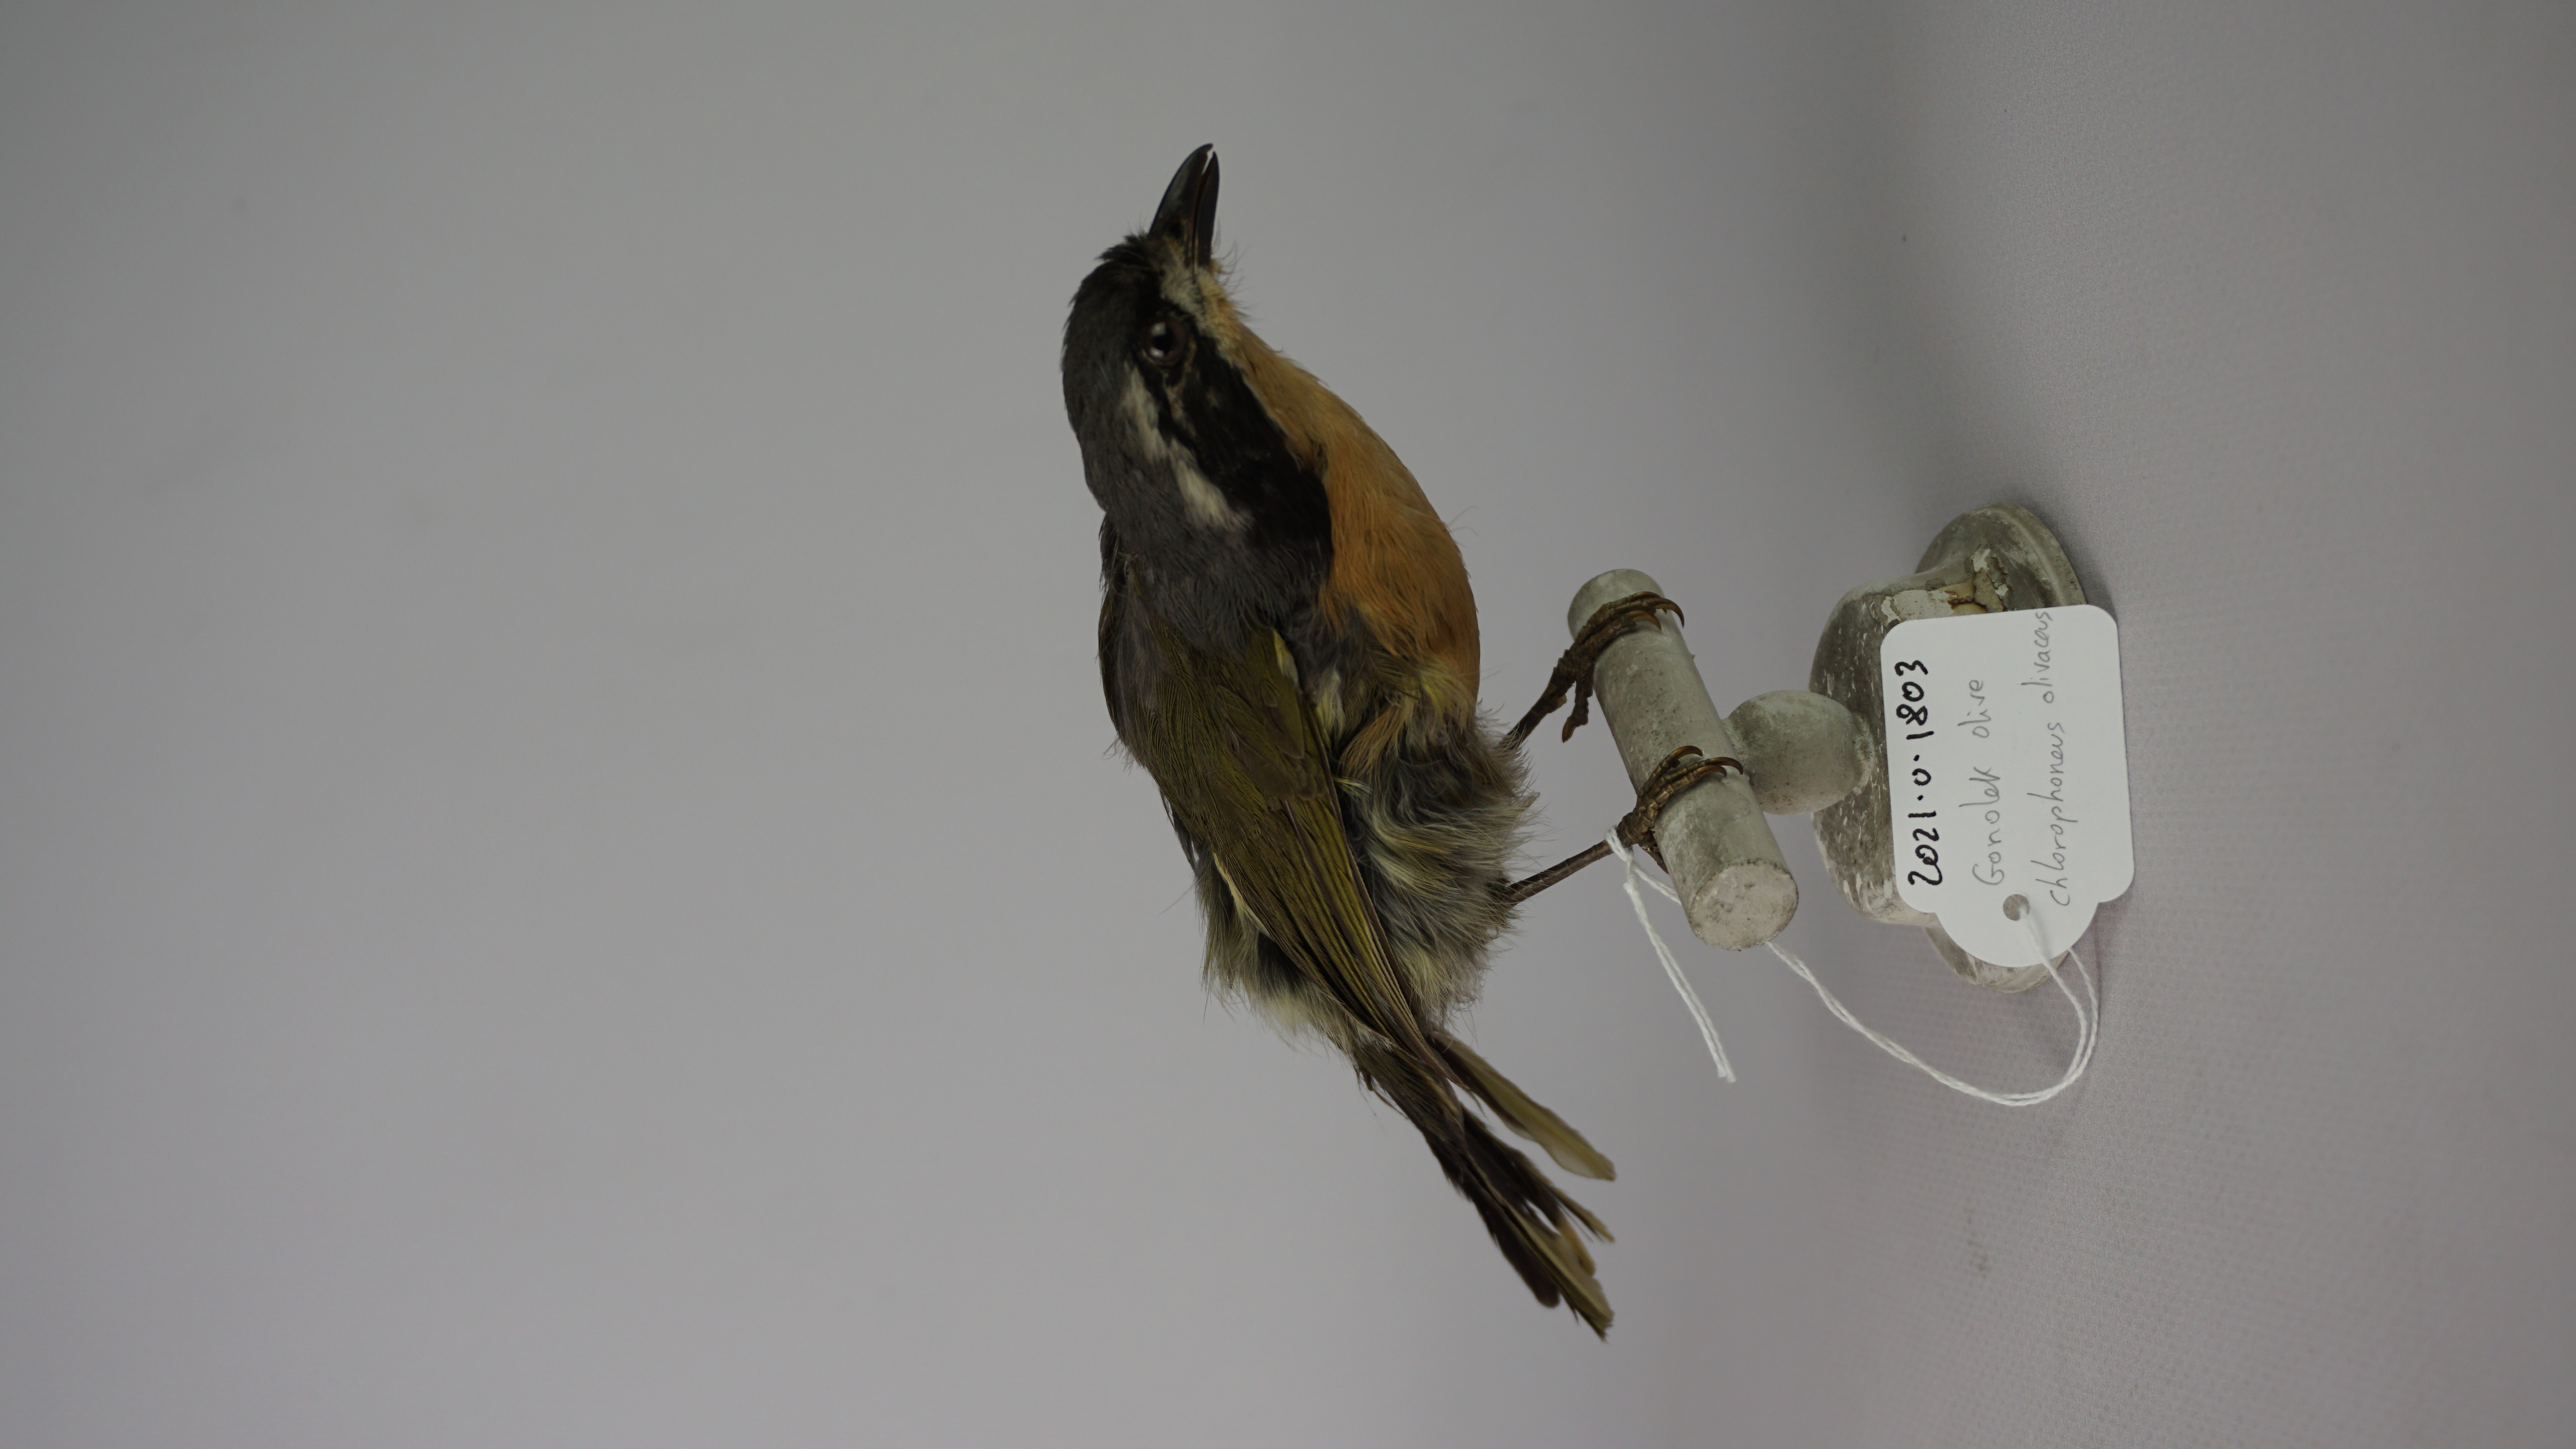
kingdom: Animalia
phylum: Chordata
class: Aves
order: Passeriformes
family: Malaconotidae
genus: Chlorophoneus
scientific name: Chlorophoneus olivaceus
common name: Olive bushshrike
